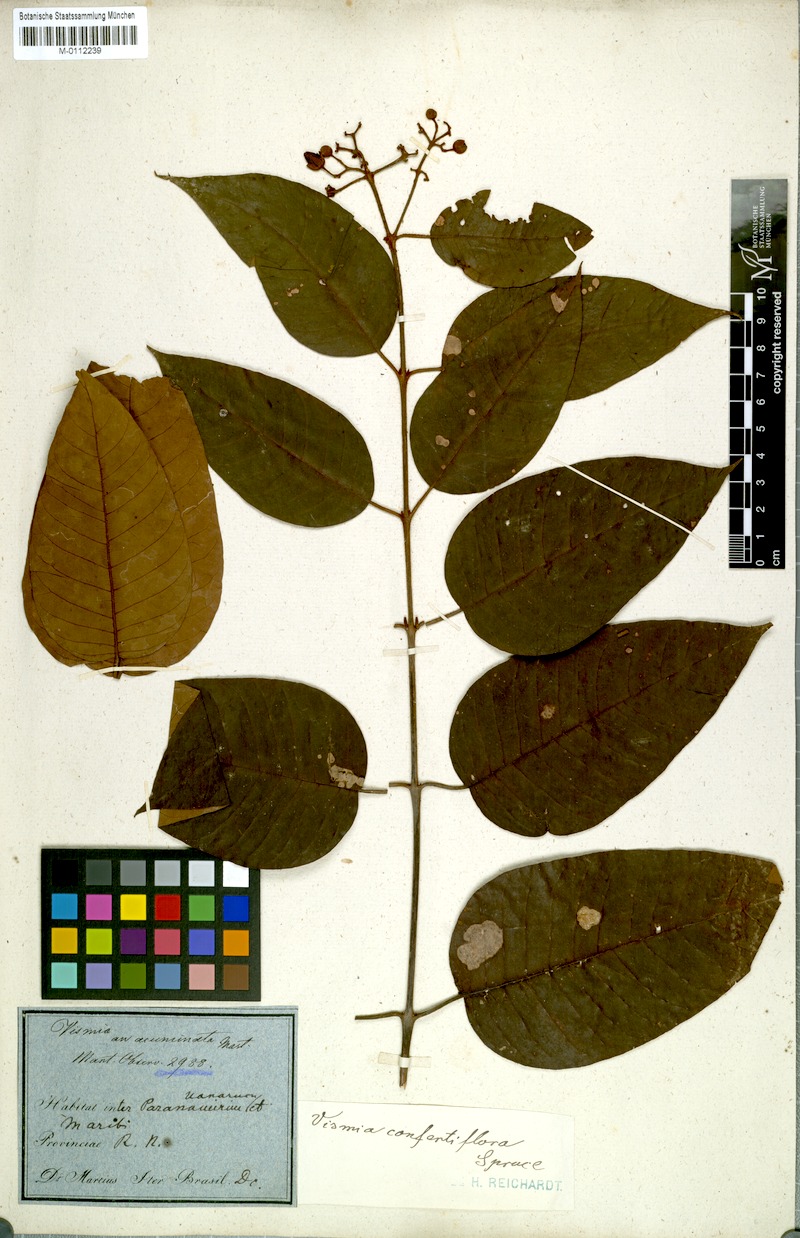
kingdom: Plantae
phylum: Tracheophyta
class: Magnoliopsida
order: Malpighiales
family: Hypericaceae
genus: Vismia
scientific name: Vismia baccifera
